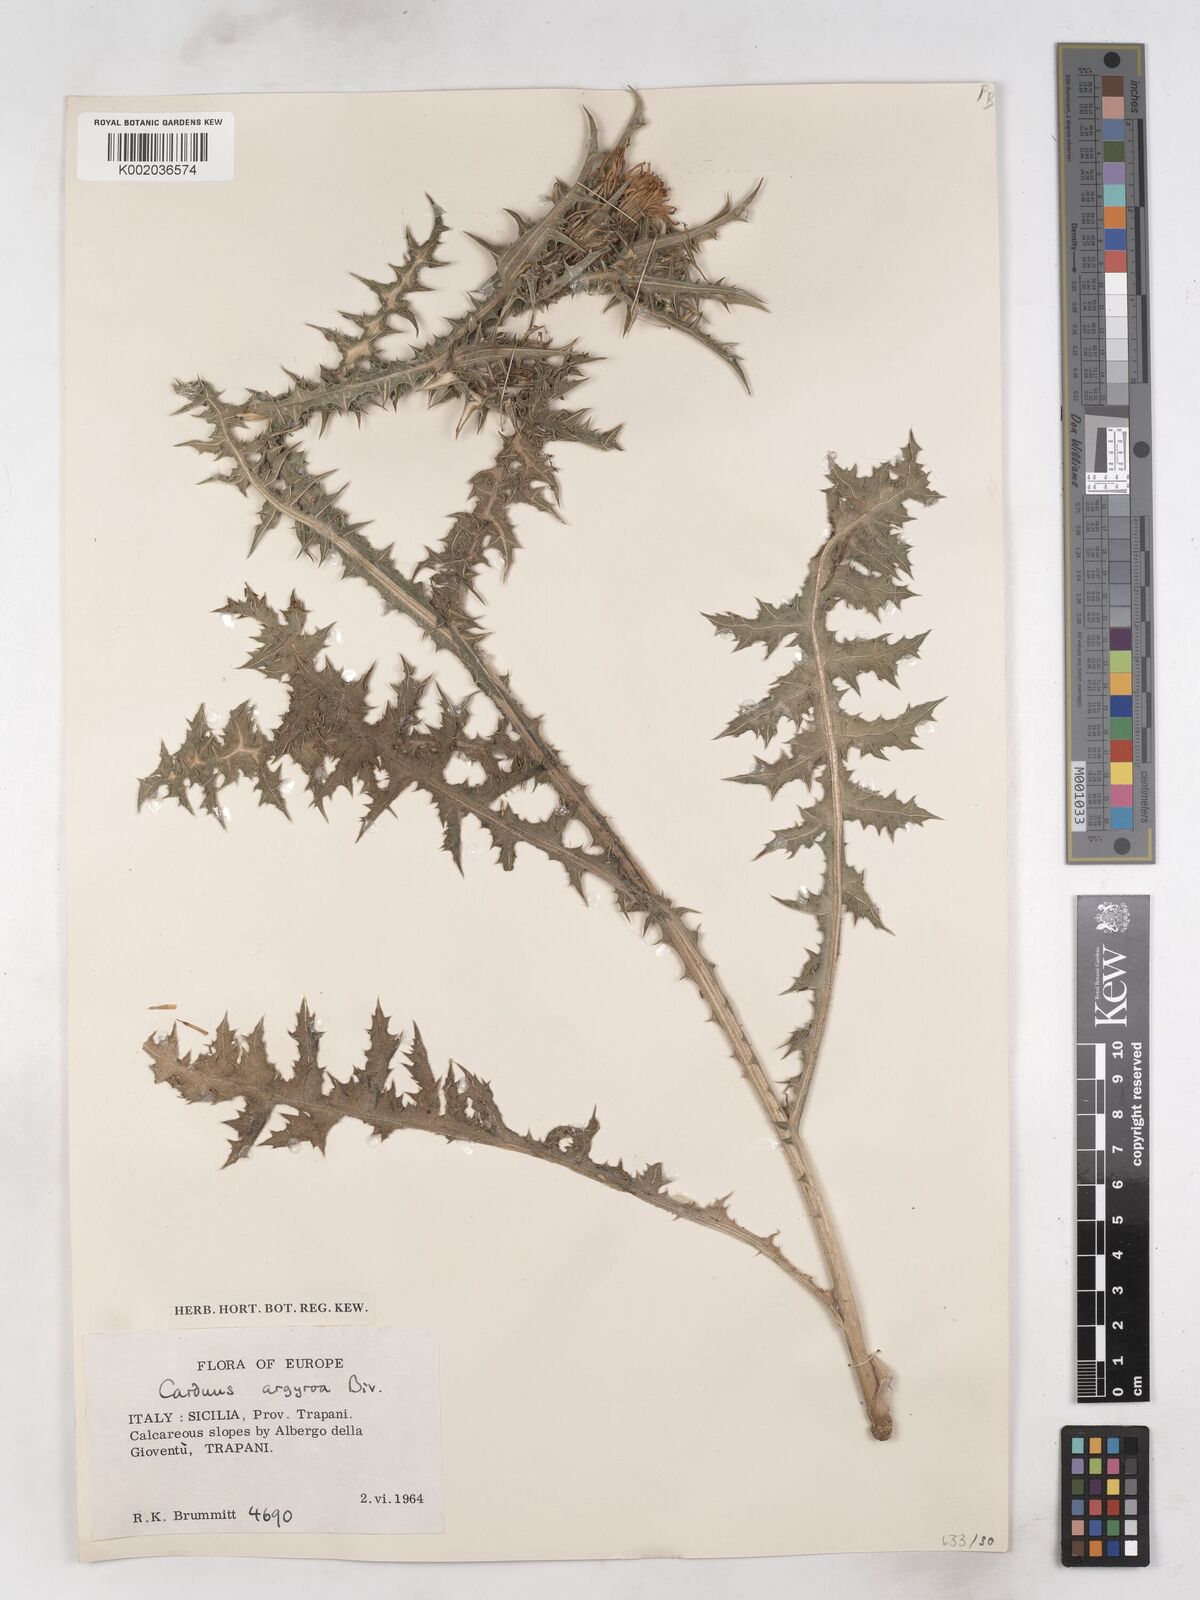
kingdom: Plantae
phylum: Tracheophyta
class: Magnoliopsida
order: Asterales
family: Asteraceae
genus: Carduus
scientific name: Carduus argyroa
